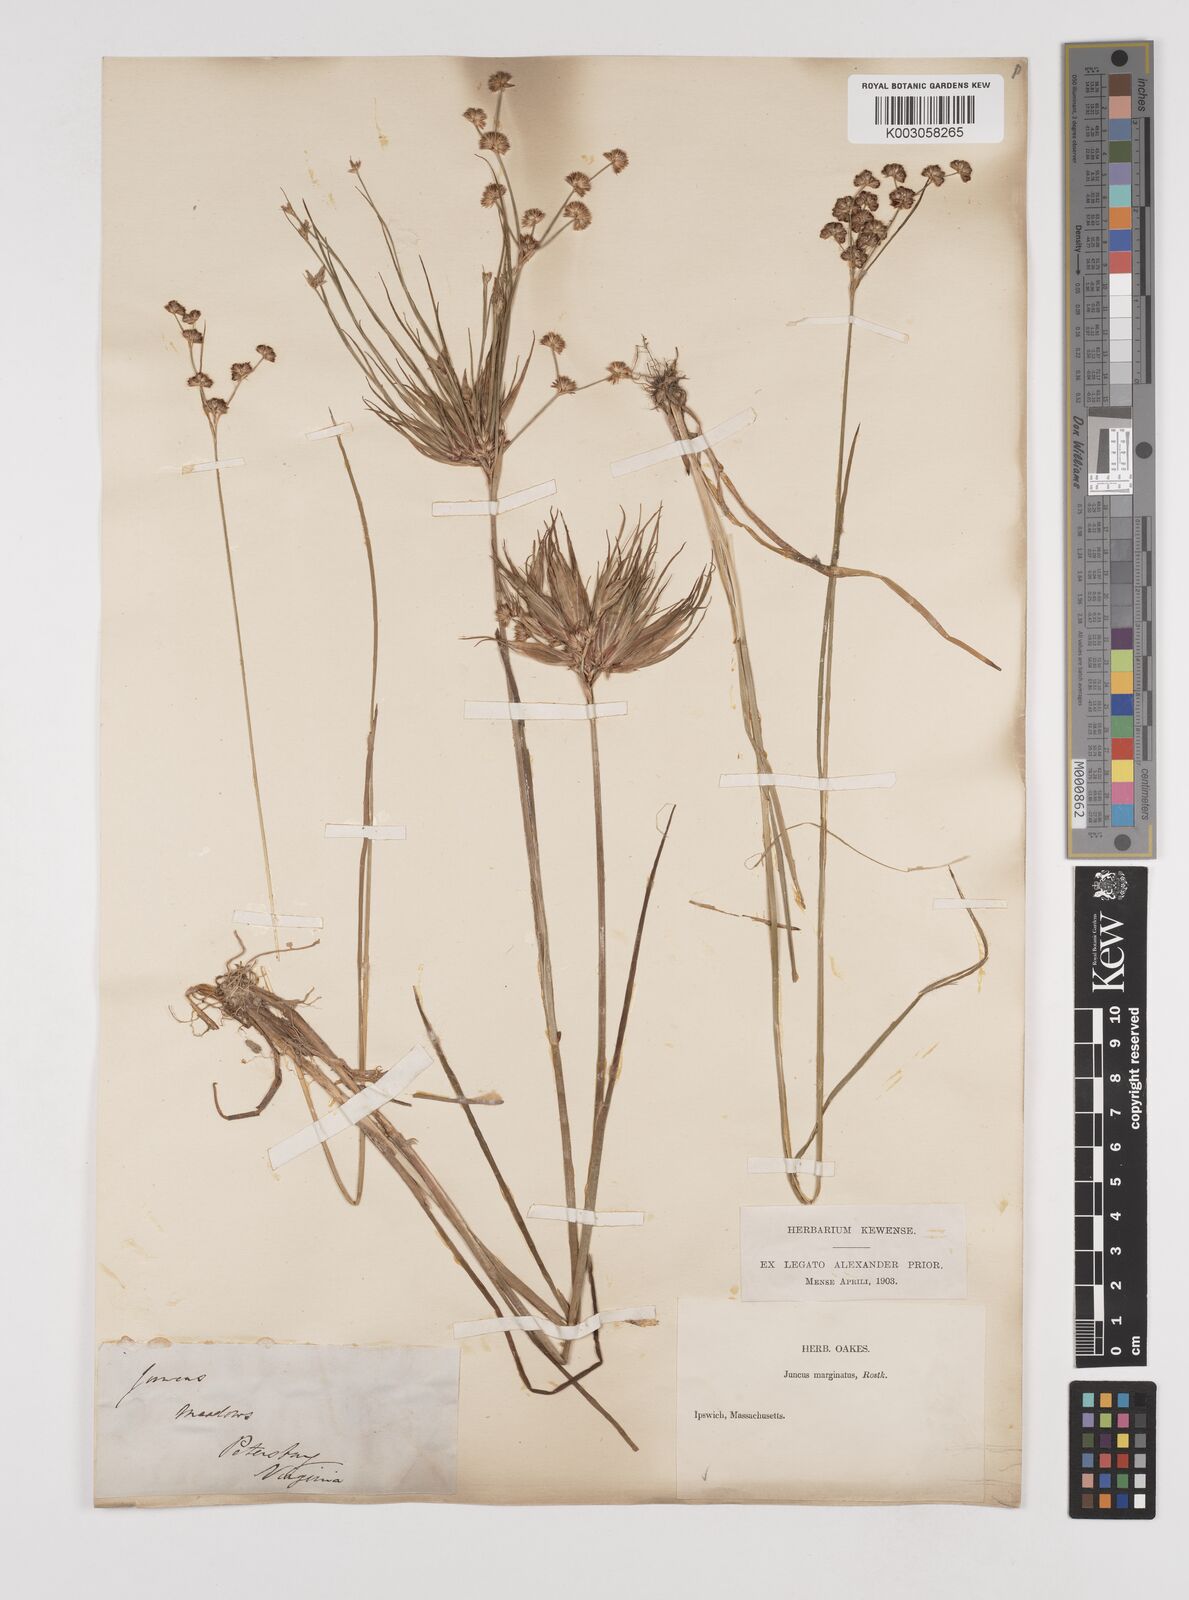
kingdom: Plantae
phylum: Tracheophyta
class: Liliopsida
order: Poales
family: Juncaceae
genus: Juncus
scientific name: Juncus
